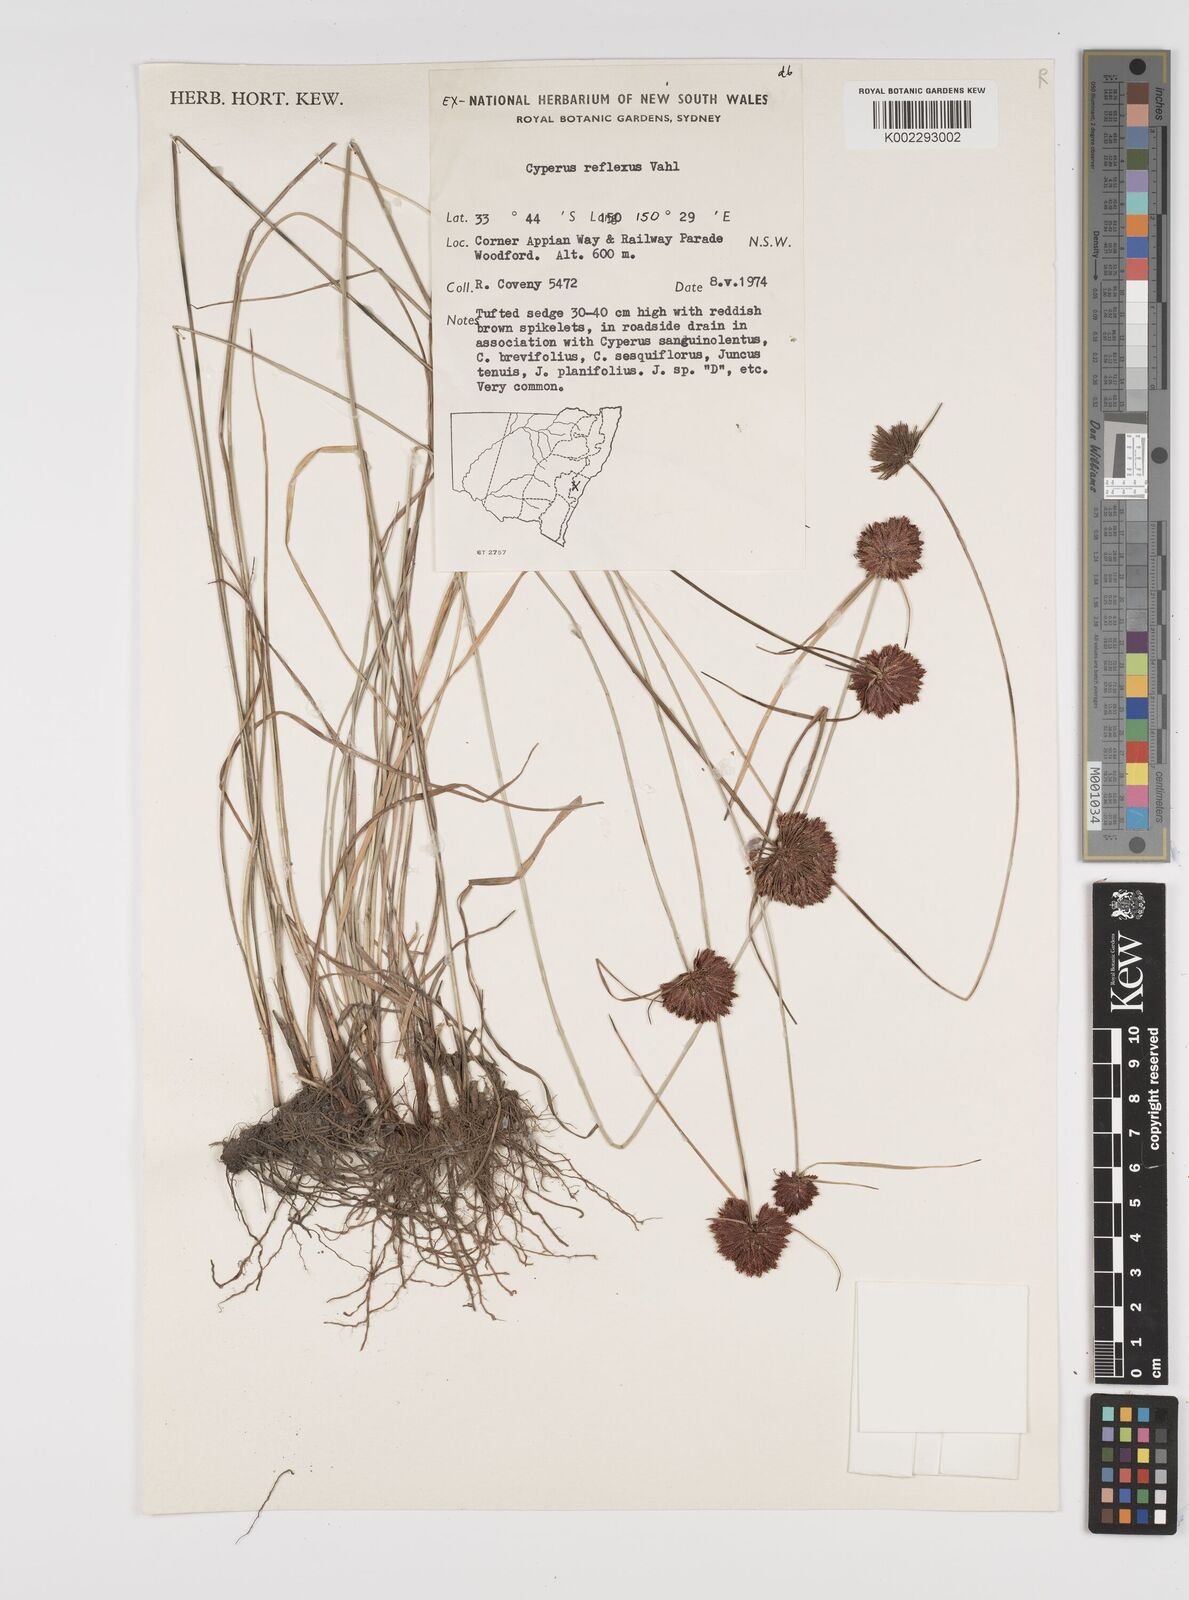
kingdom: Plantae
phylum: Tracheophyta
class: Liliopsida
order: Poales
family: Cyperaceae
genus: Cyperus
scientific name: Cyperus reflexus
